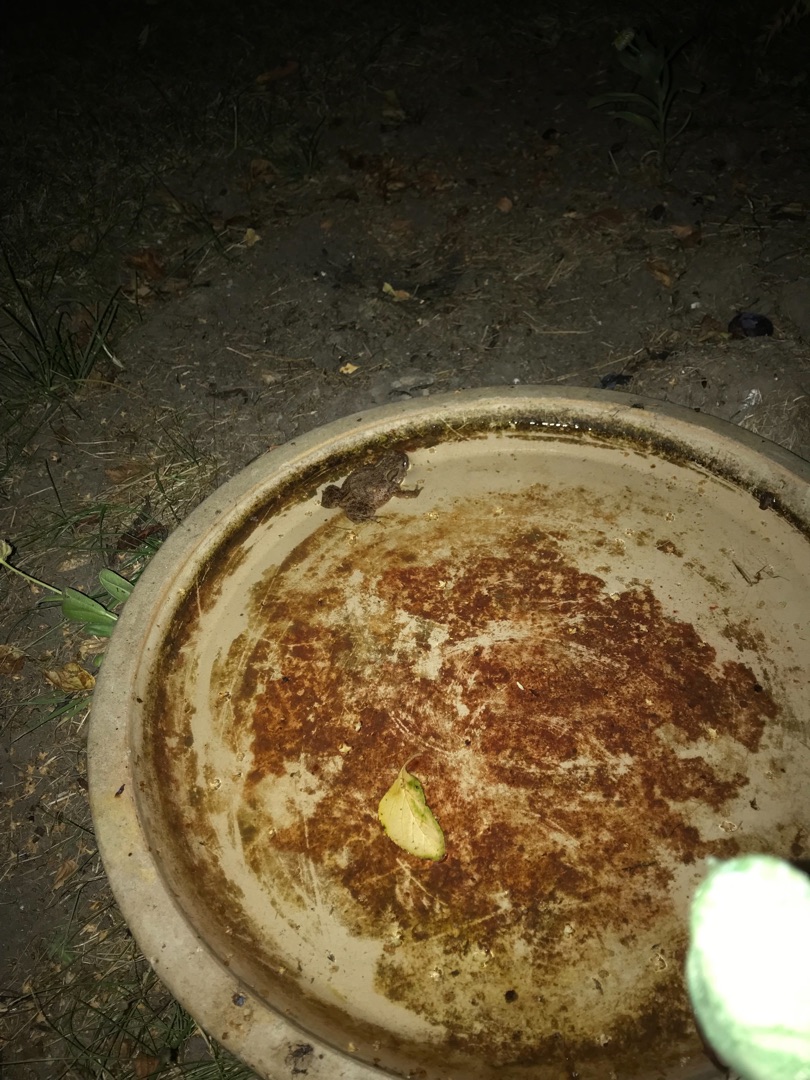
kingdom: Animalia
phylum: Chordata
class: Amphibia
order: Anura
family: Bufonidae
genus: Bufo
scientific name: Bufo bufo
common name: Skrubtudse
